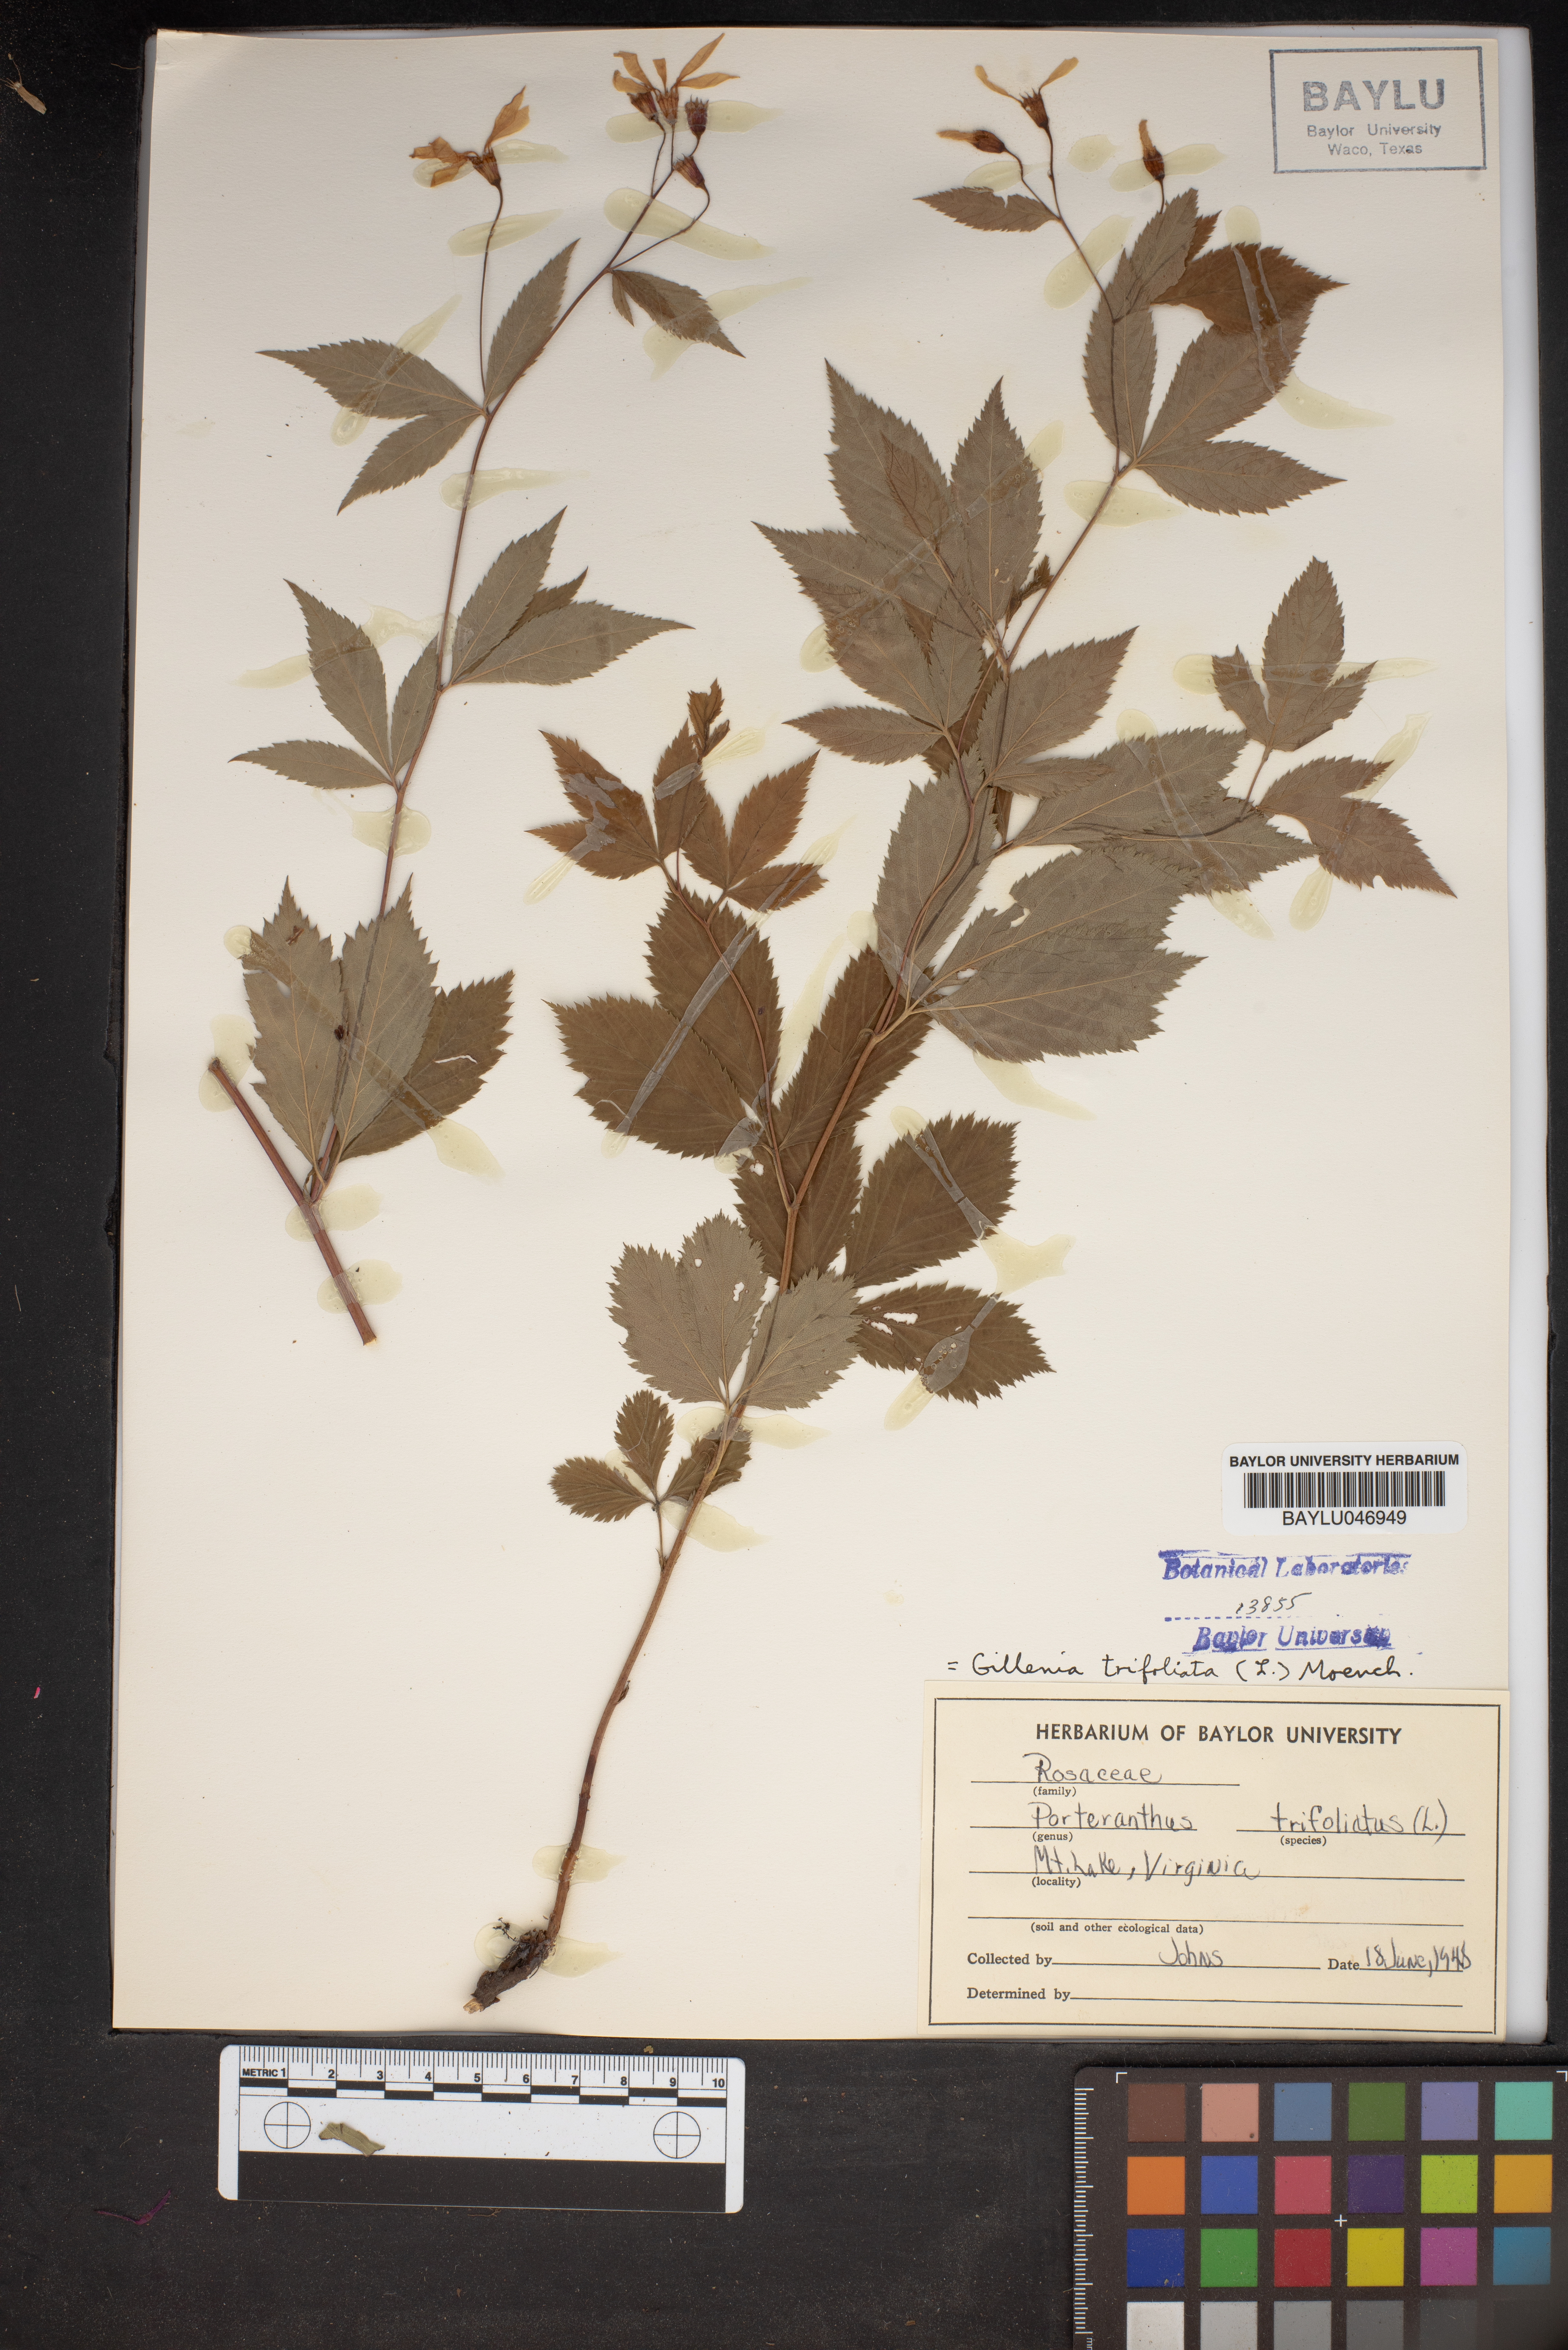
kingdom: Plantae
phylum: Tracheophyta
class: Magnoliopsida
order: Rosales
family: Rosaceae
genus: Gillenia
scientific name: Gillenia trifoliata
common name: Bowman's-root
